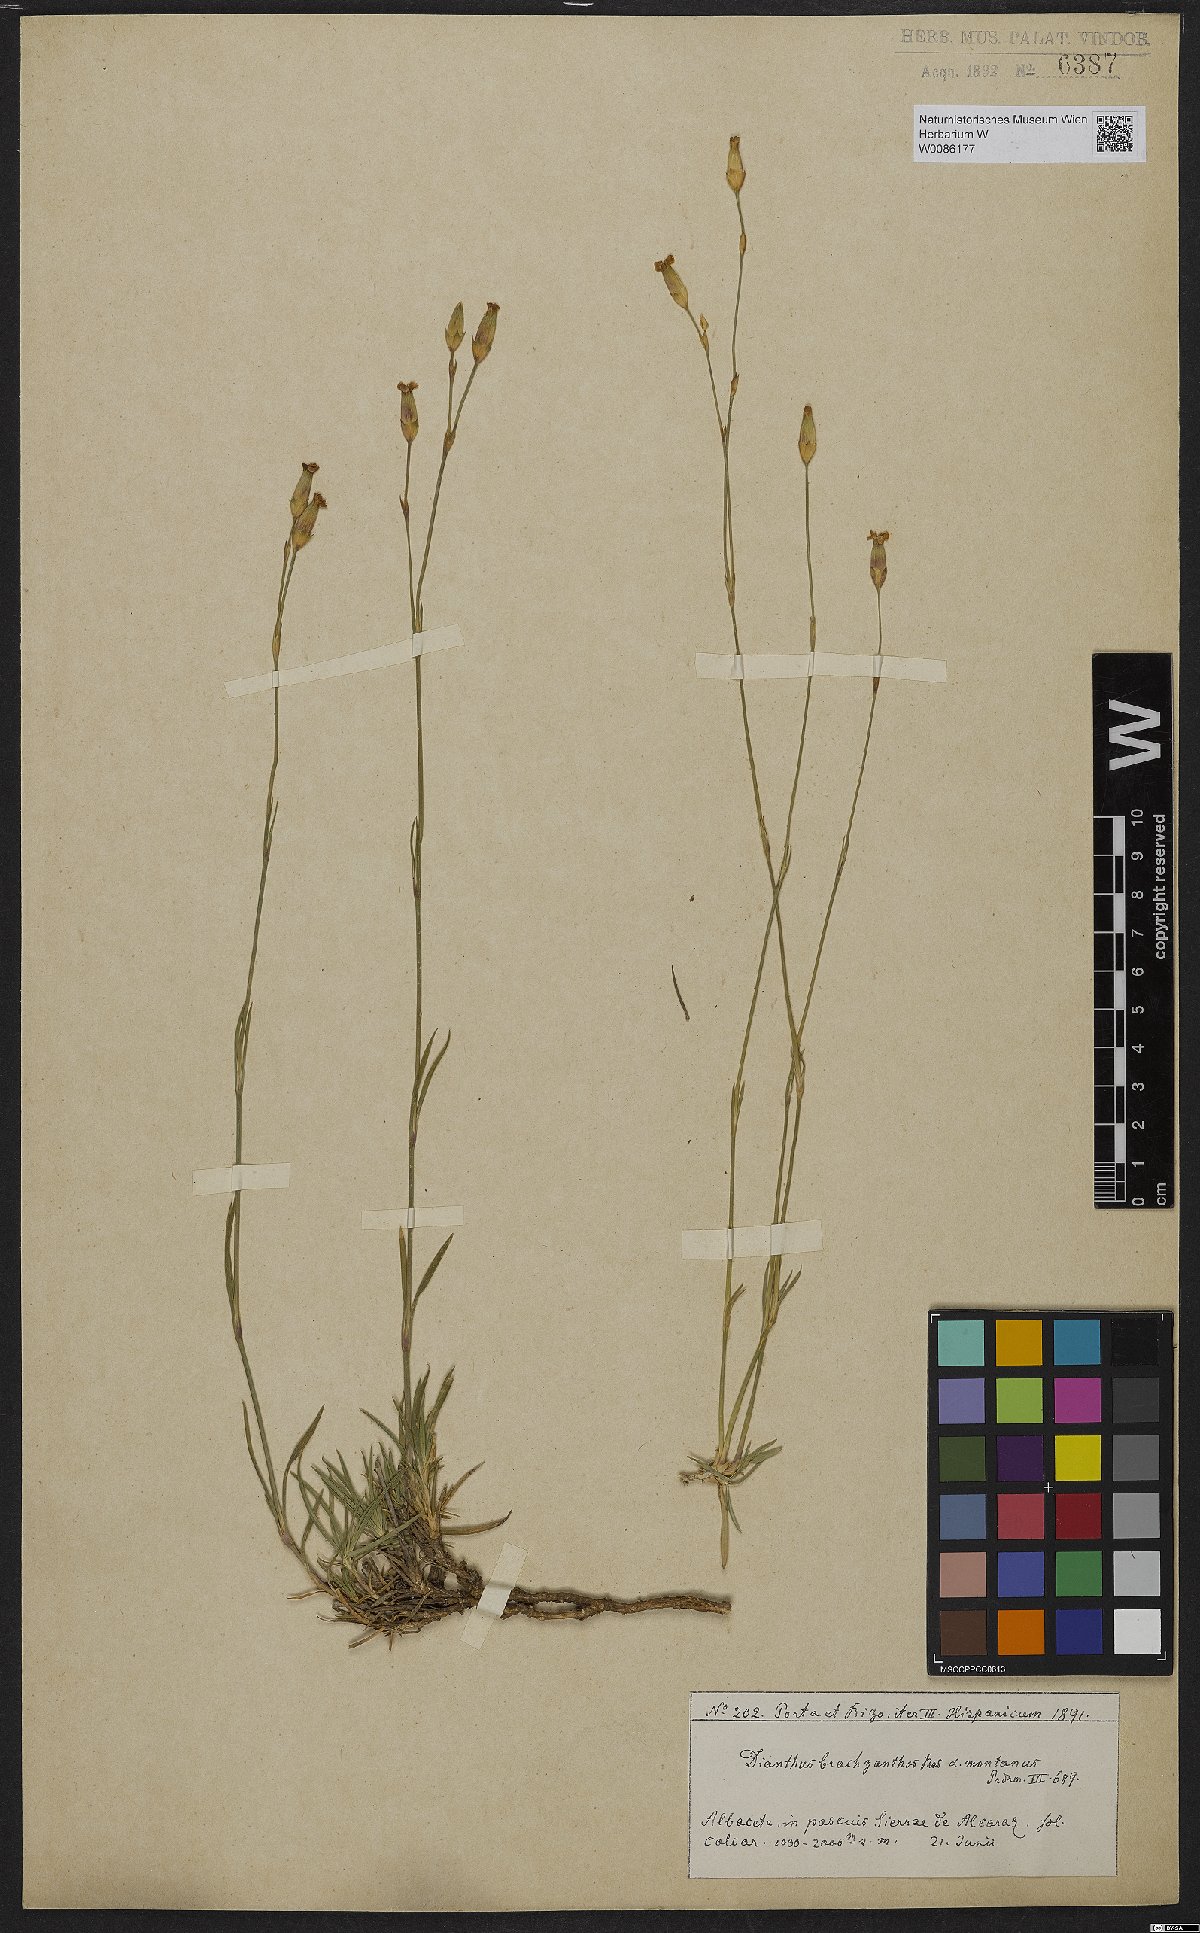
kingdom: Plantae
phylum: Tracheophyta
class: Magnoliopsida
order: Caryophyllales
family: Caryophyllaceae
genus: Dianthus
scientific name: Dianthus subacaulis
